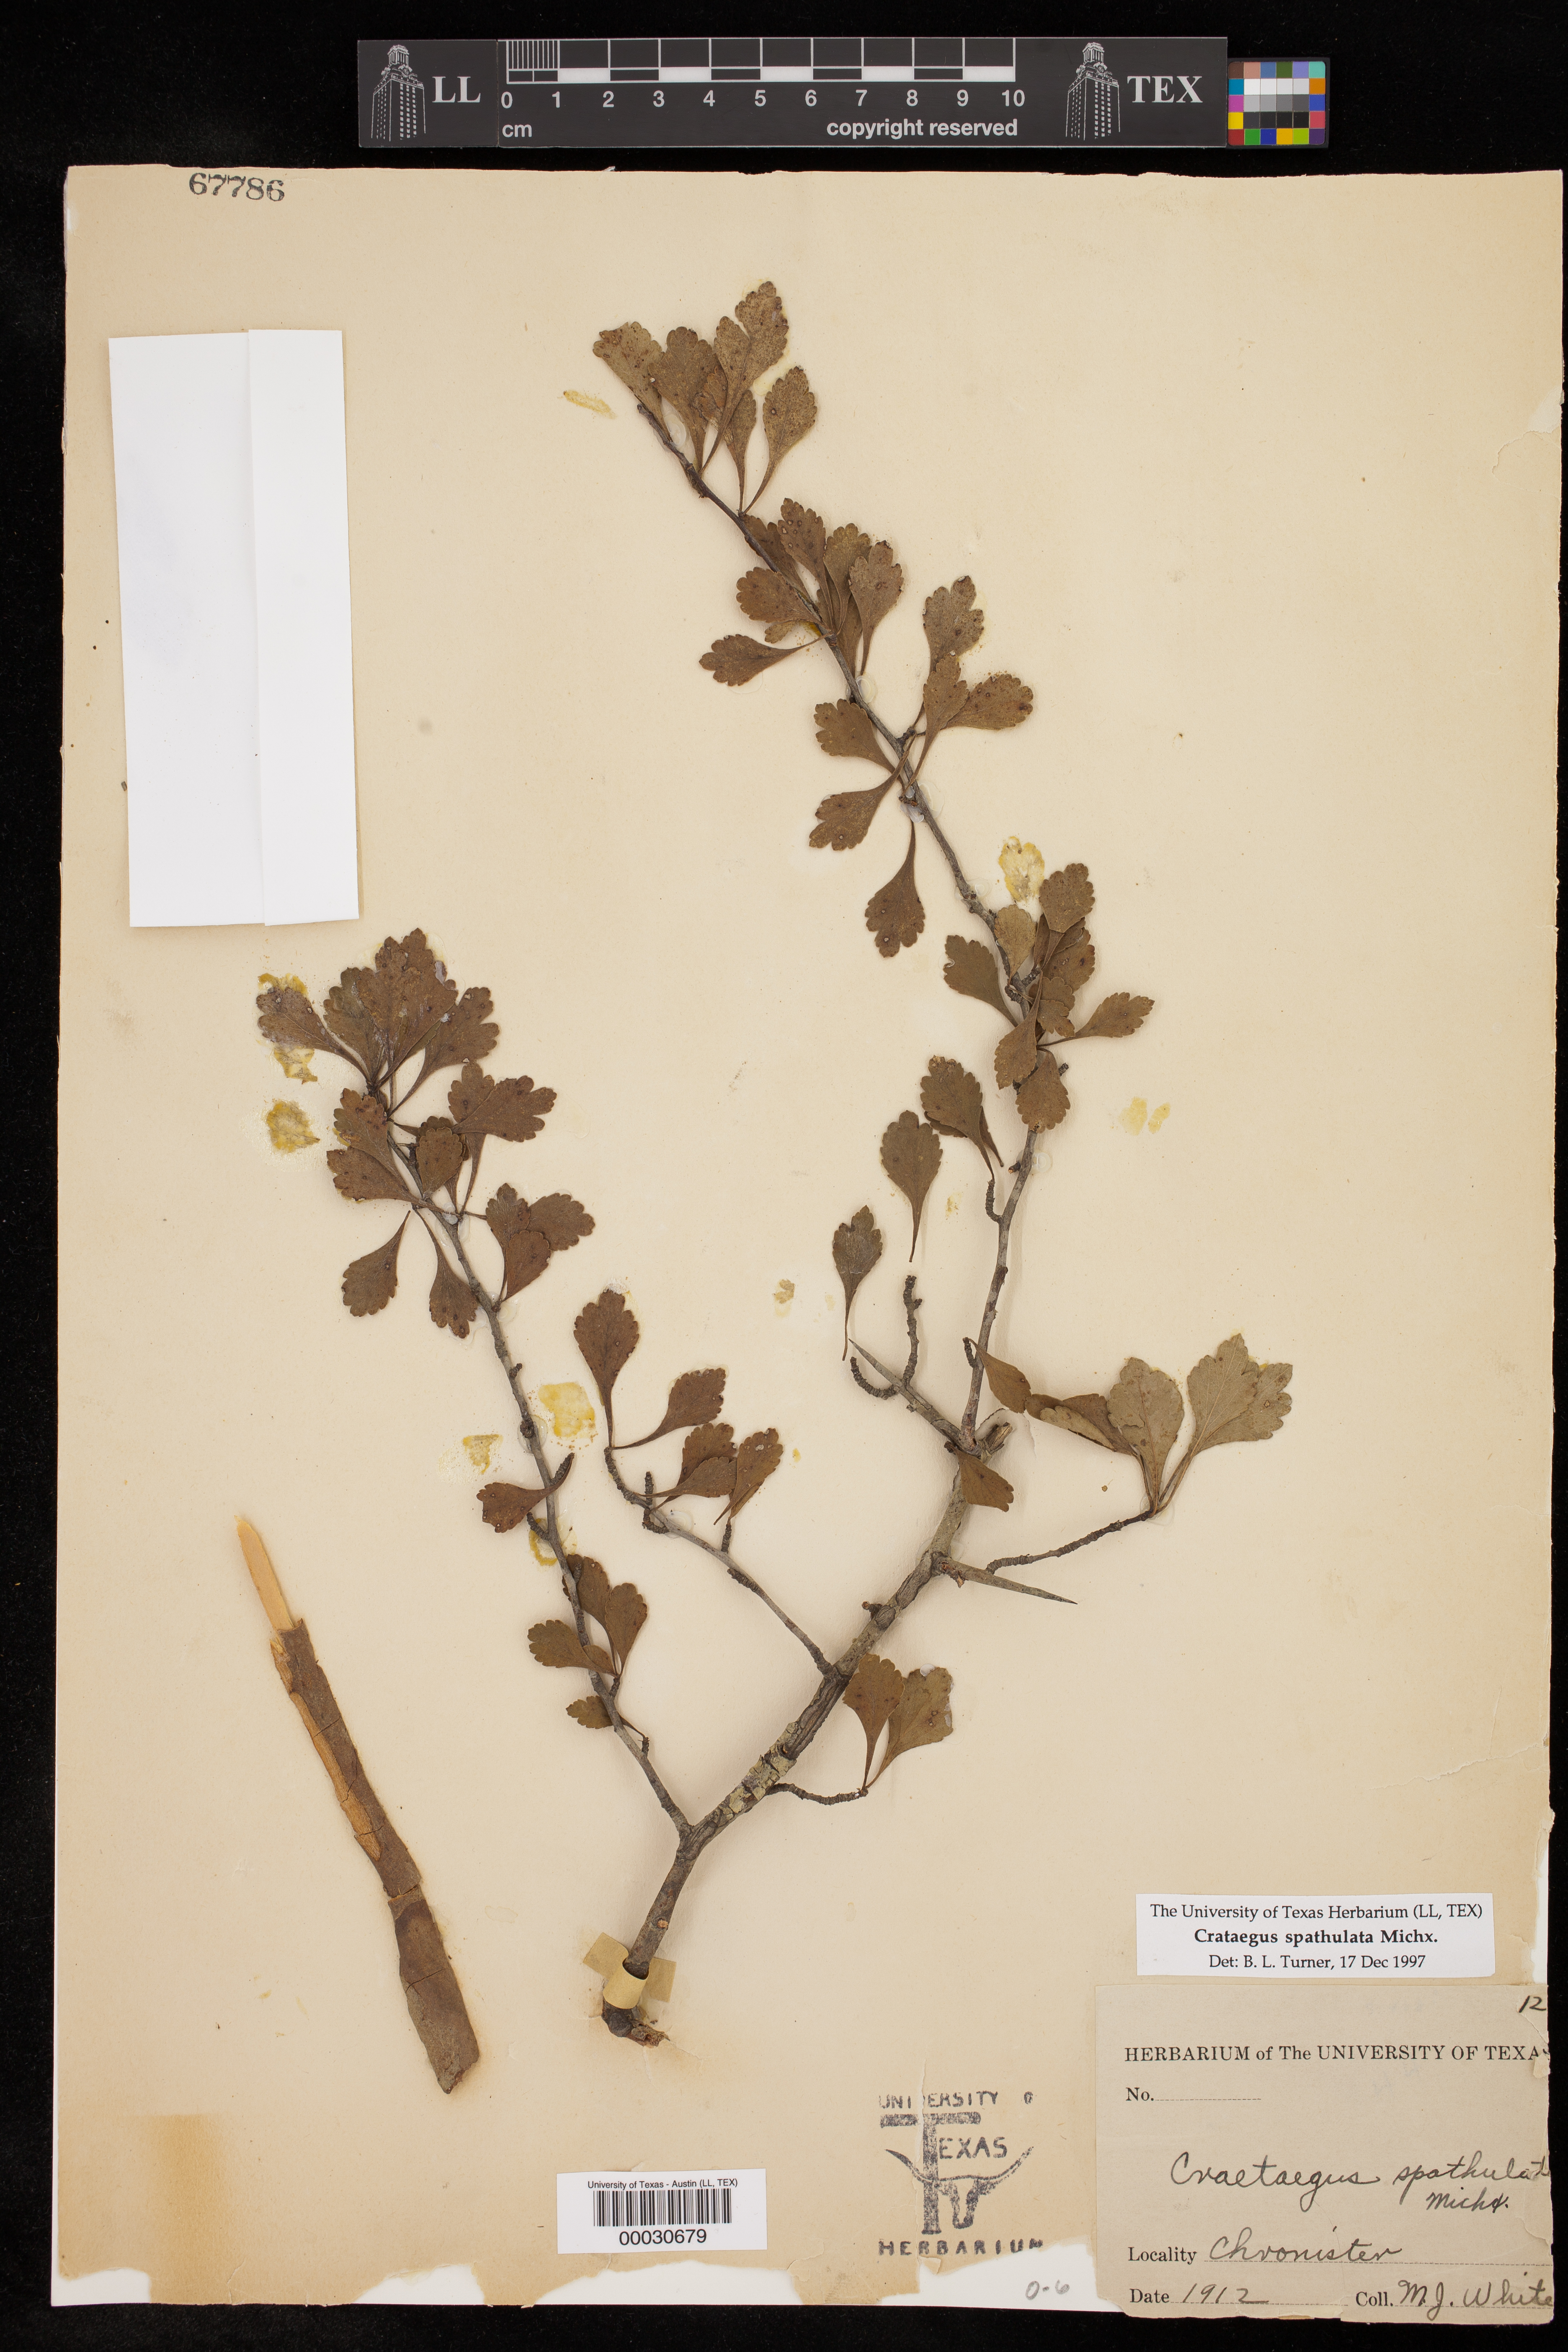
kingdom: Plantae
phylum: Tracheophyta
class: Magnoliopsida
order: Rosales
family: Rosaceae
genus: Crataegus
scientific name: Crataegus spathulata
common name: Littlehip hawthorn
